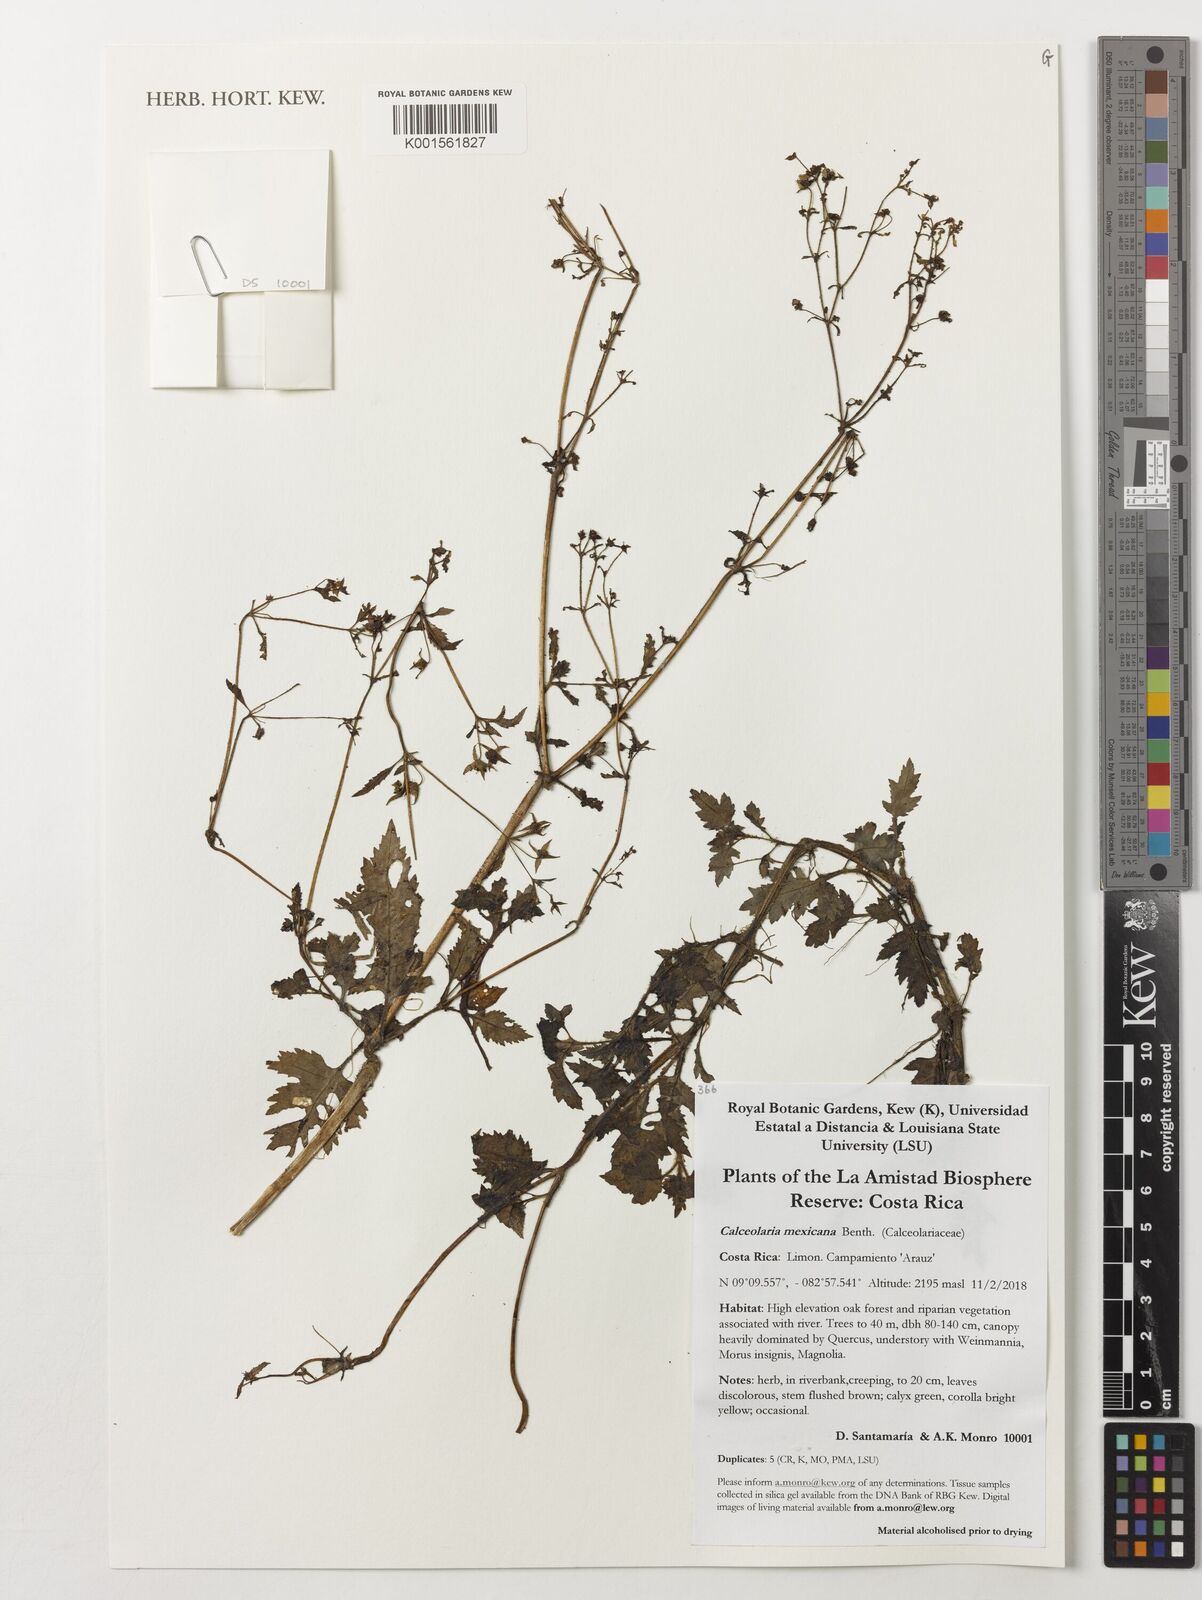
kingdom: Plantae
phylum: Tracheophyta
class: Magnoliopsida
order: Lamiales
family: Calceolariaceae
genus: Calceolaria
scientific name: Calceolaria mexicana
